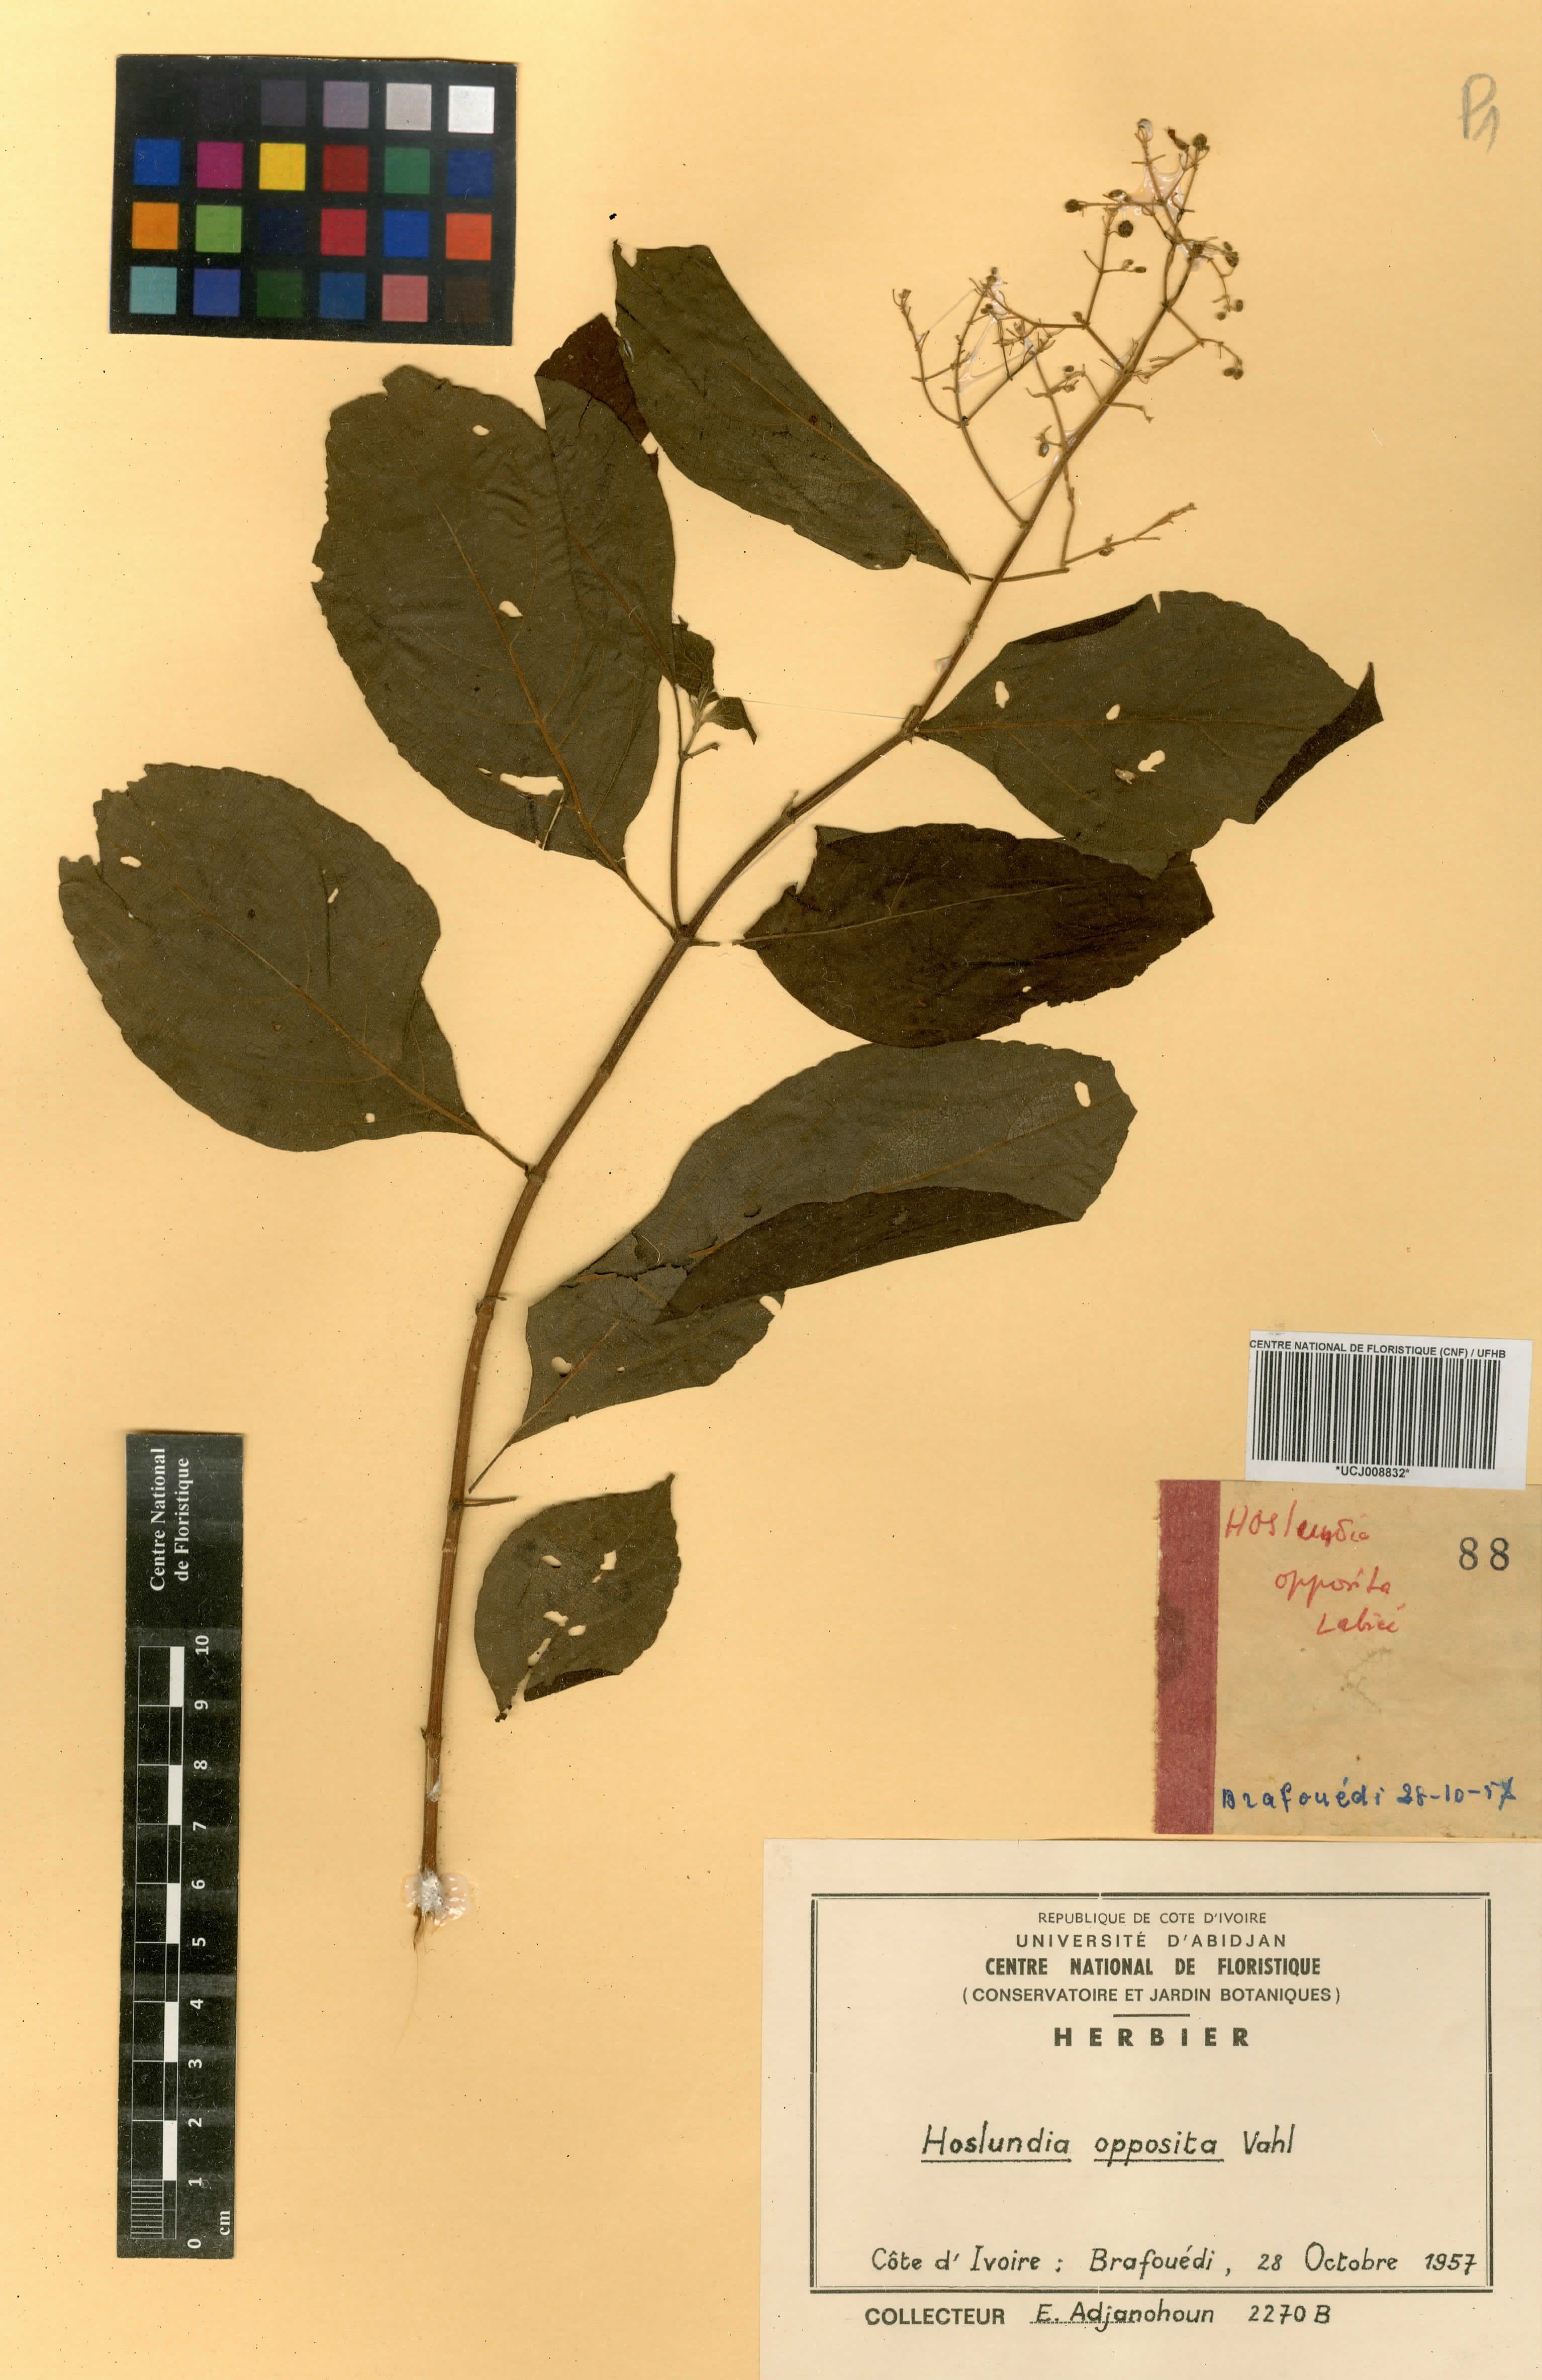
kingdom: Plantae
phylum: Tracheophyta
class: Magnoliopsida
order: Lamiales
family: Lamiaceae
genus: Hoslundia
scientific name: Hoslundia opposita
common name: Kamyuye
